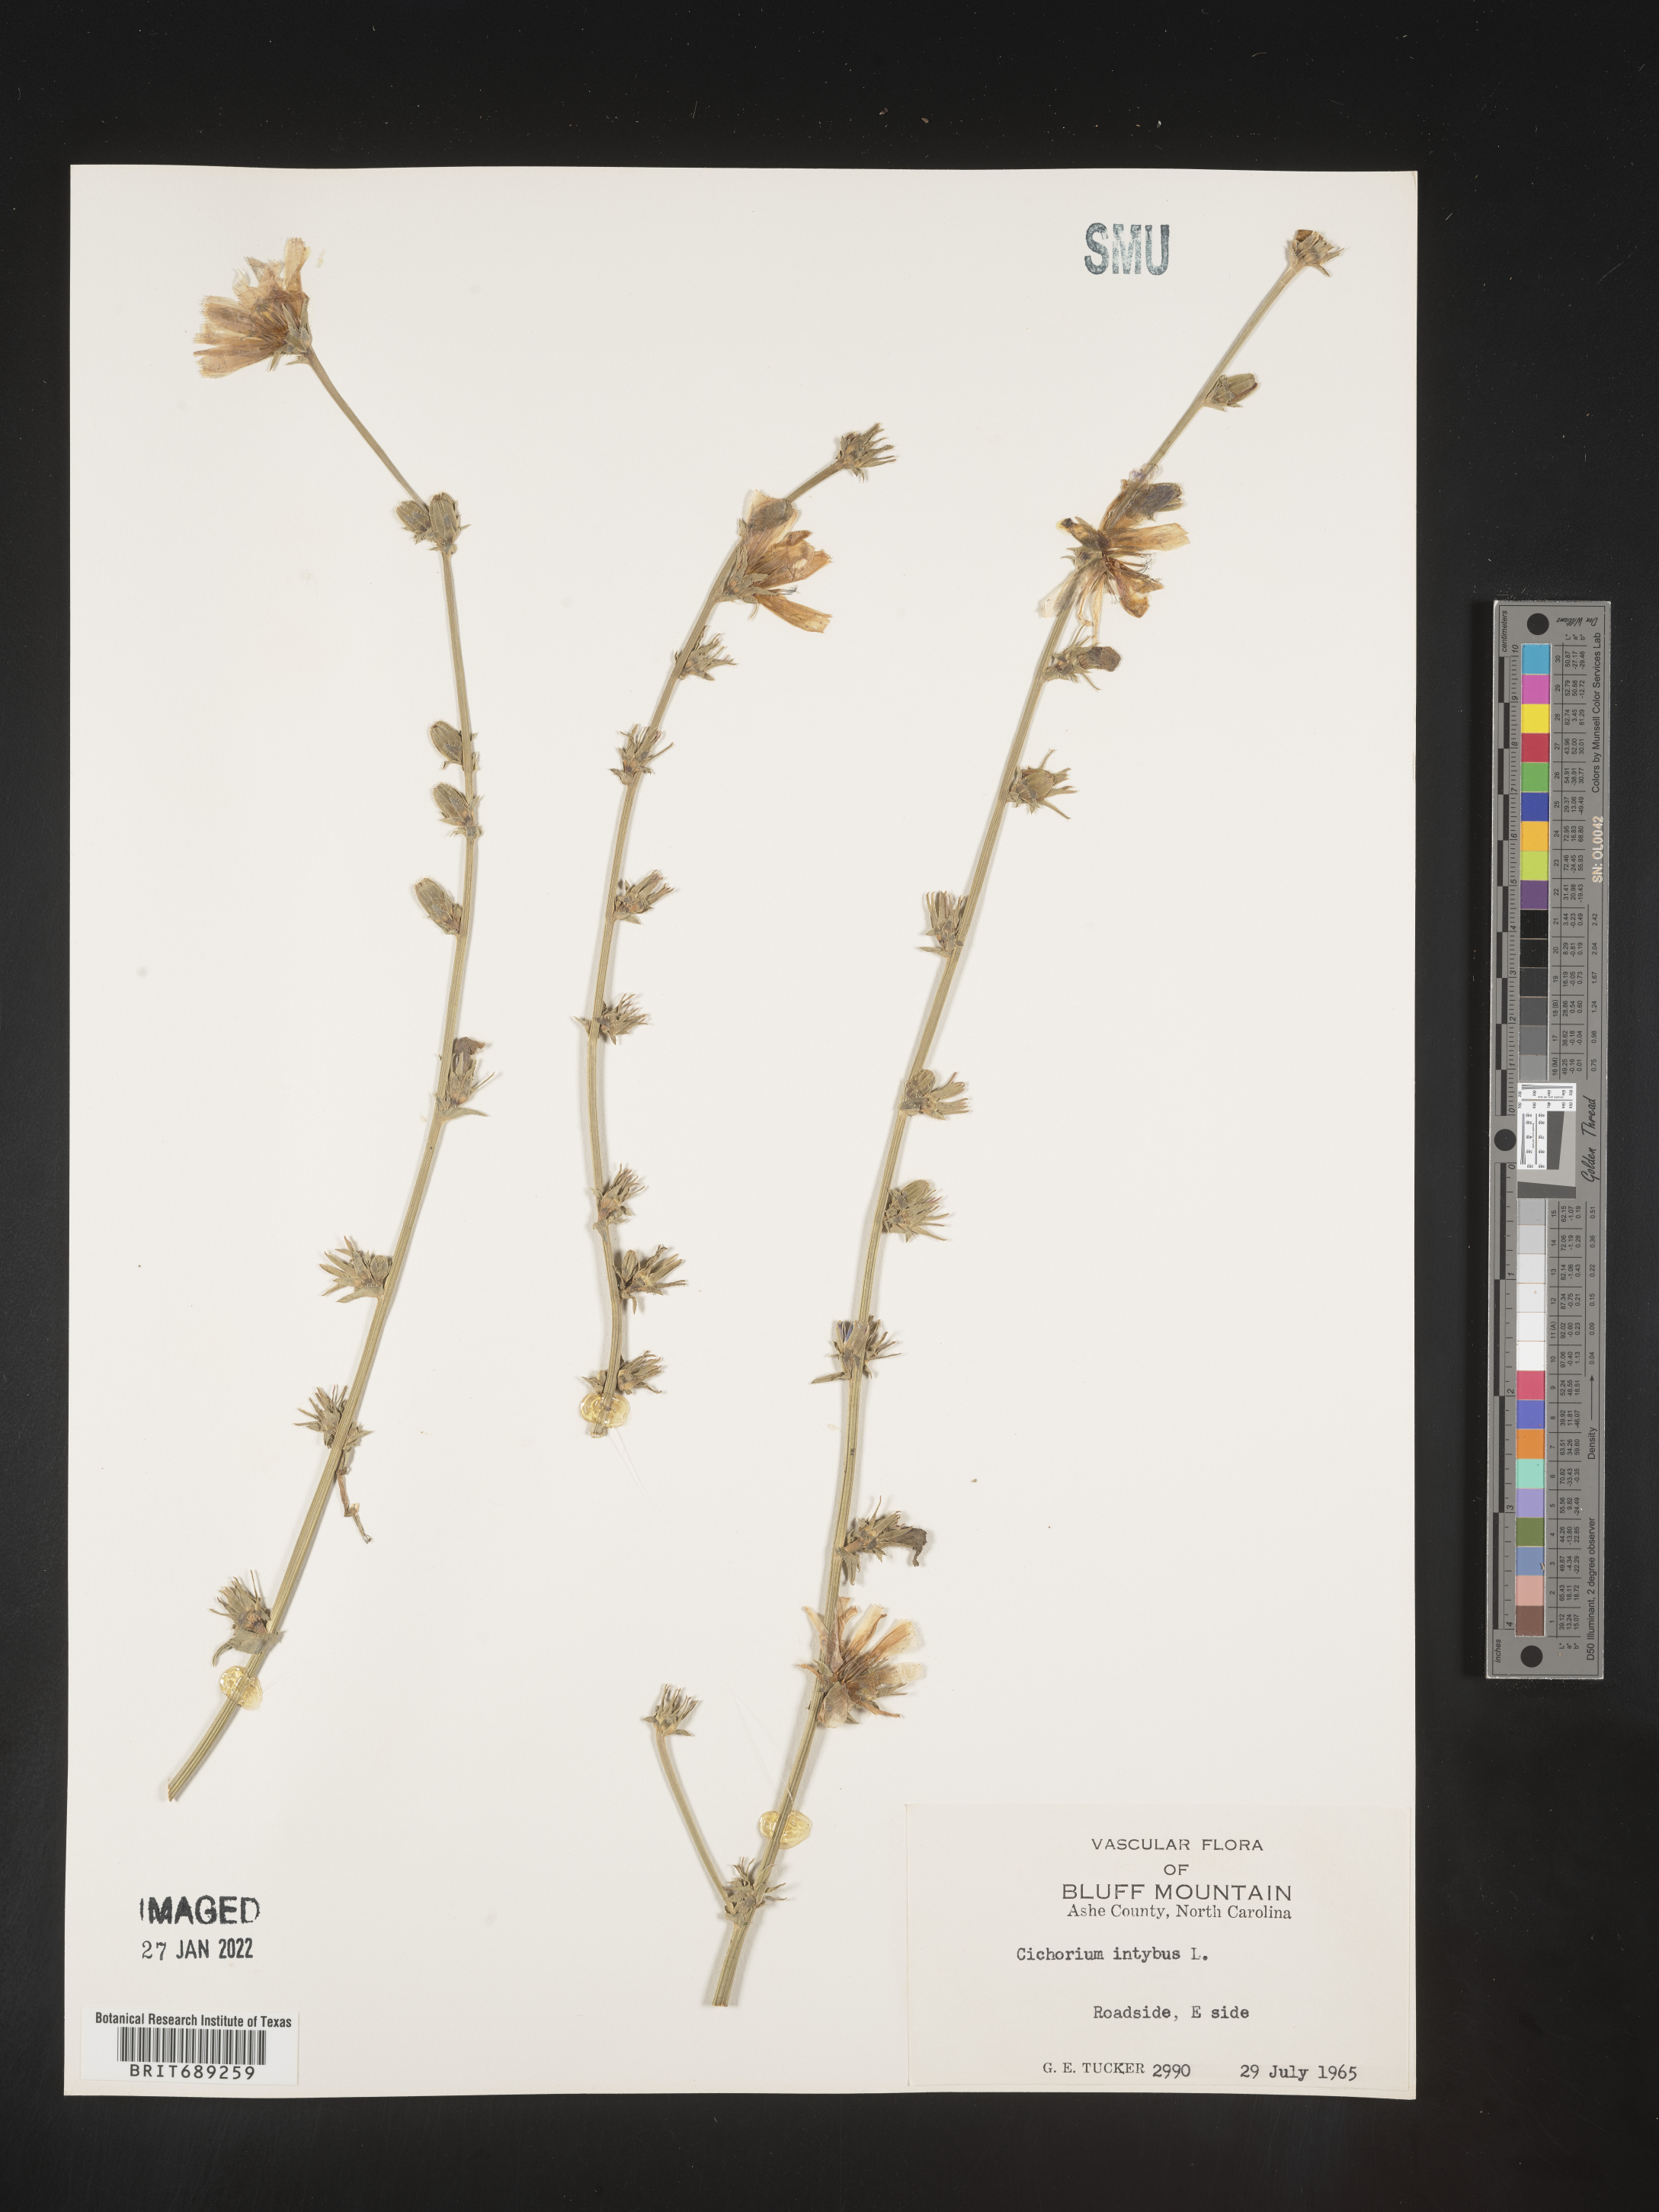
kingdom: Plantae
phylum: Tracheophyta
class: Magnoliopsida
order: Asterales
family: Asteraceae
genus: Cichorium
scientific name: Cichorium intybus
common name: Chicory
